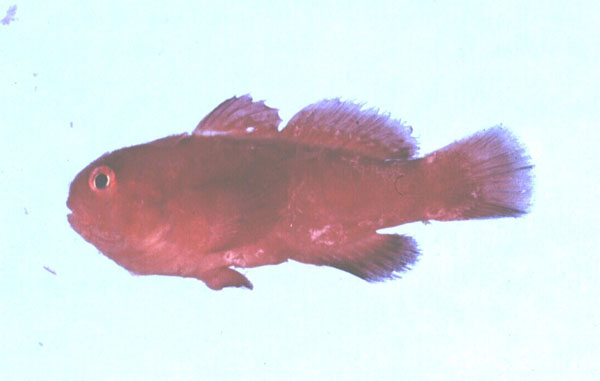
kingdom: Animalia
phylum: Chordata
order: Perciformes
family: Gobiidae
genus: Gobiodon
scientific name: Gobiodon rivulatus
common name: Rippled coralgoby
